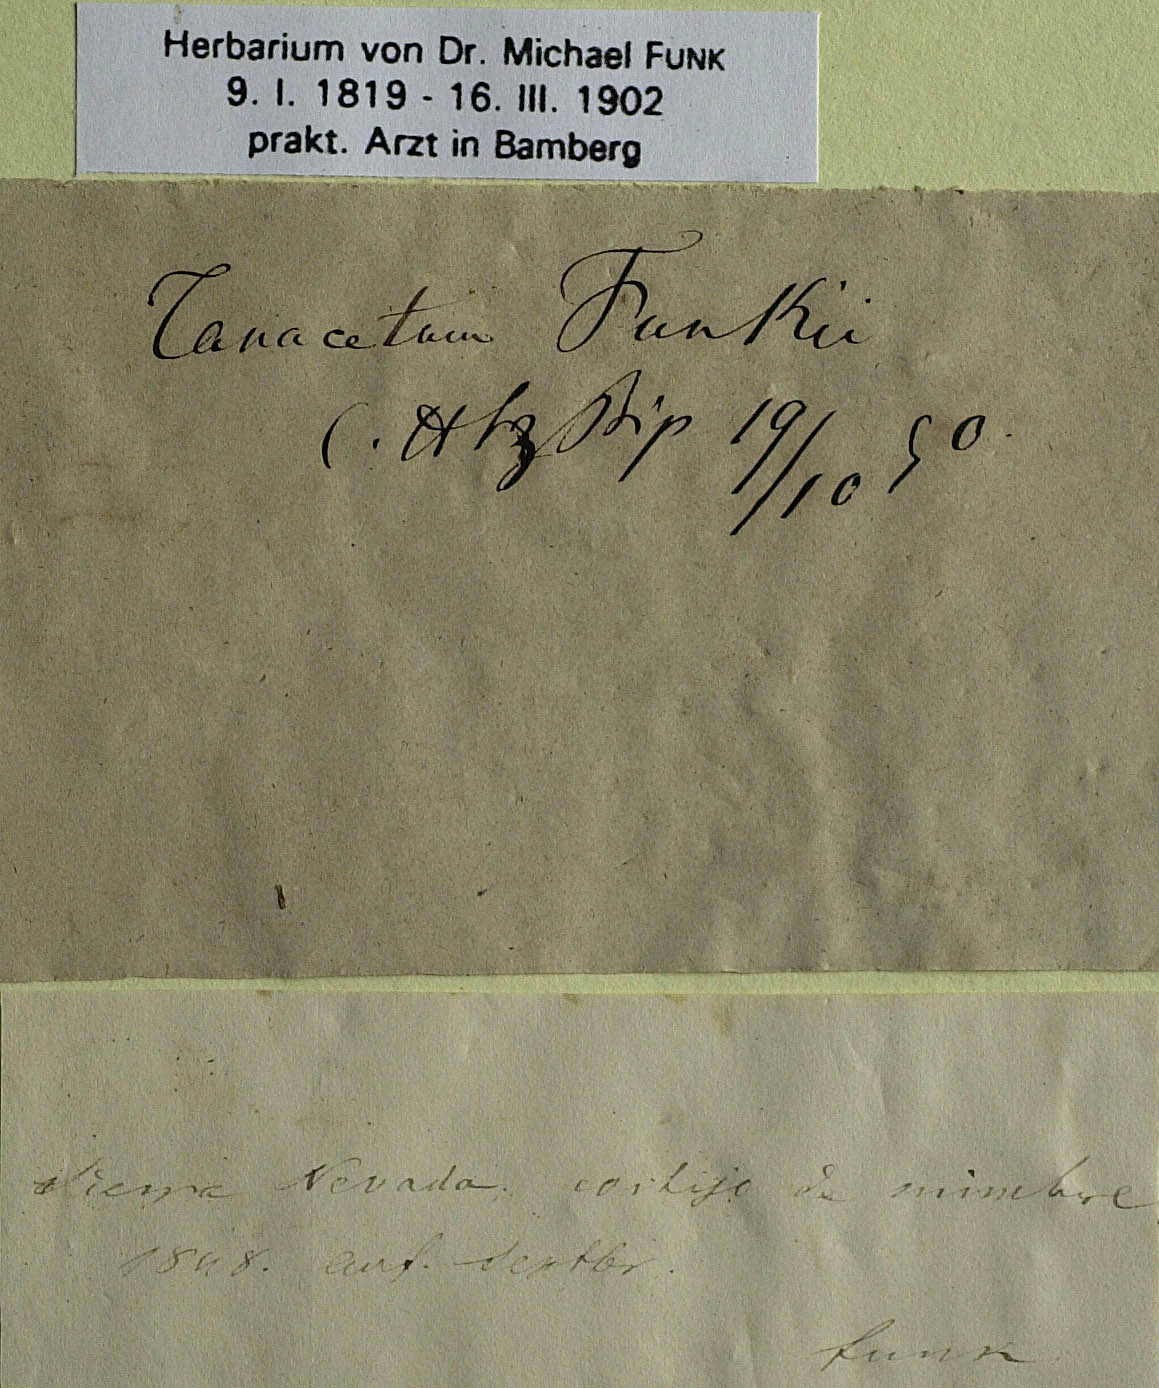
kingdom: Plantae
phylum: Tracheophyta
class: Magnoliopsida
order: Asterales
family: Asteraceae
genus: Anthemis
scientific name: Anthemis funkii
